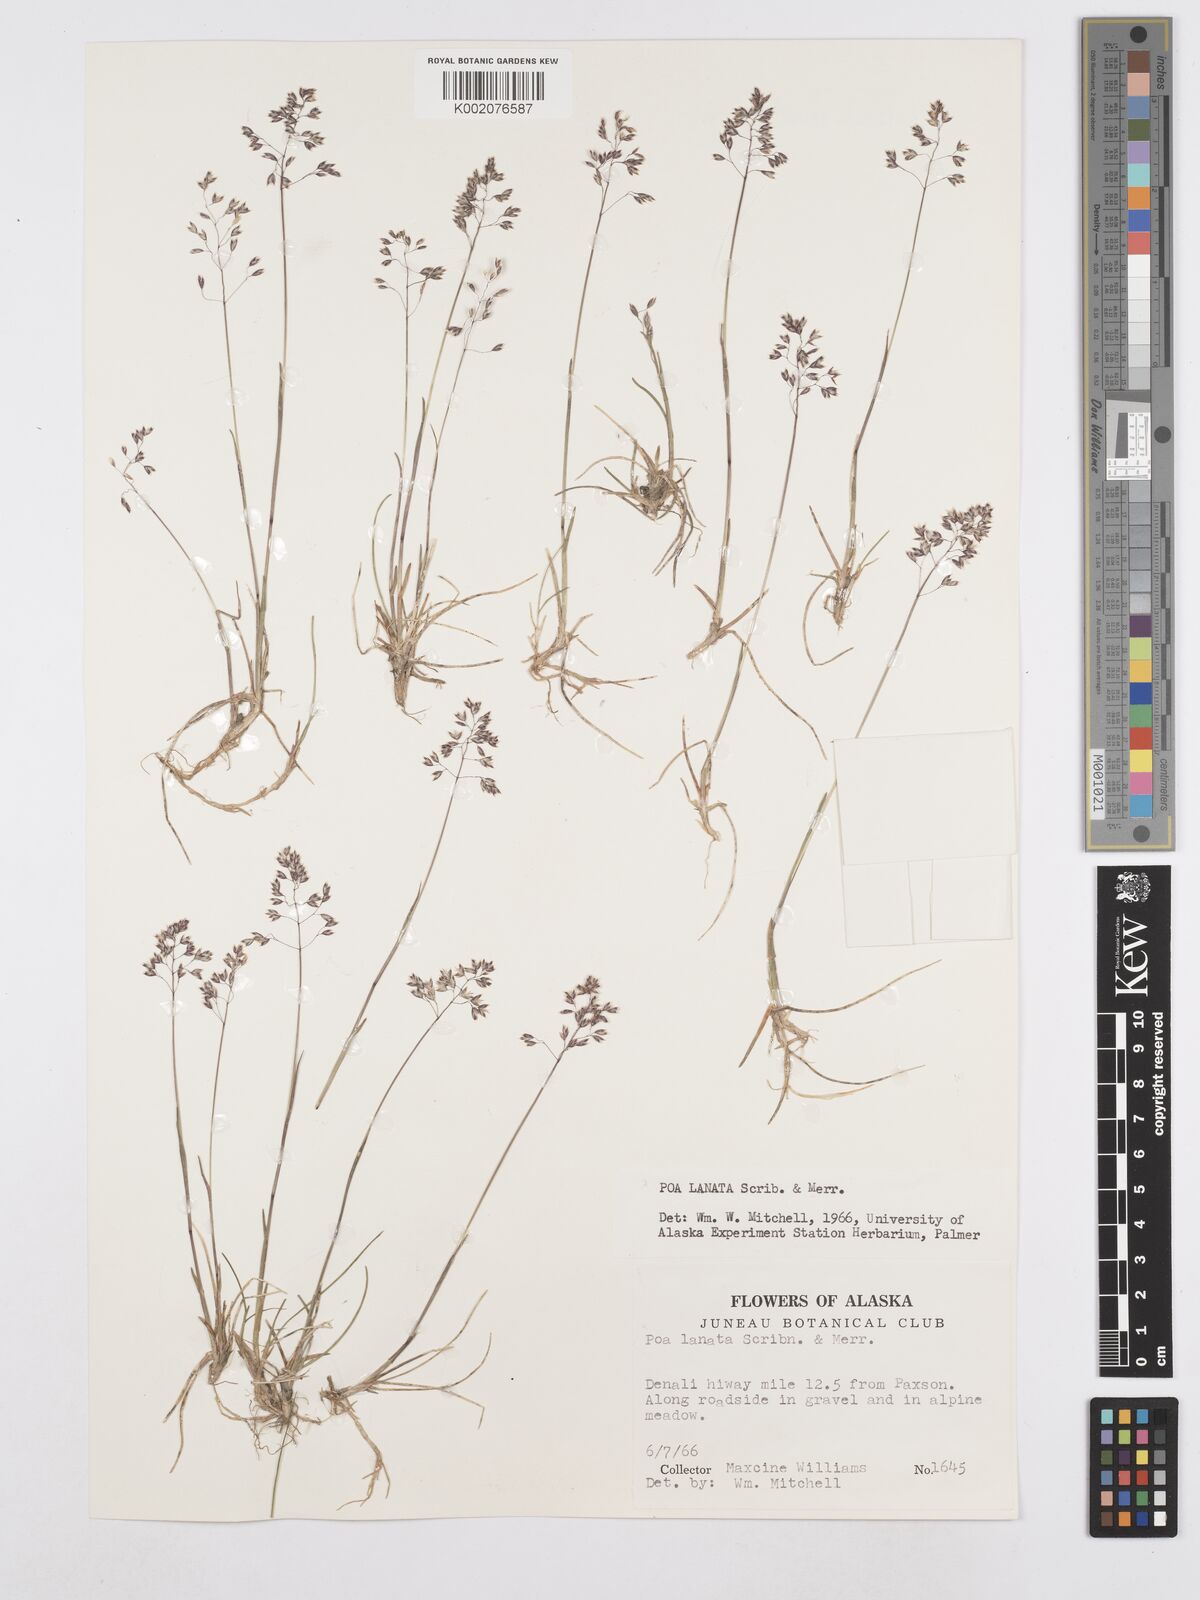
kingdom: Plantae
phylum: Tracheophyta
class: Liliopsida
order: Poales
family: Poaceae
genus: Poa
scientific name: Poa lanata
